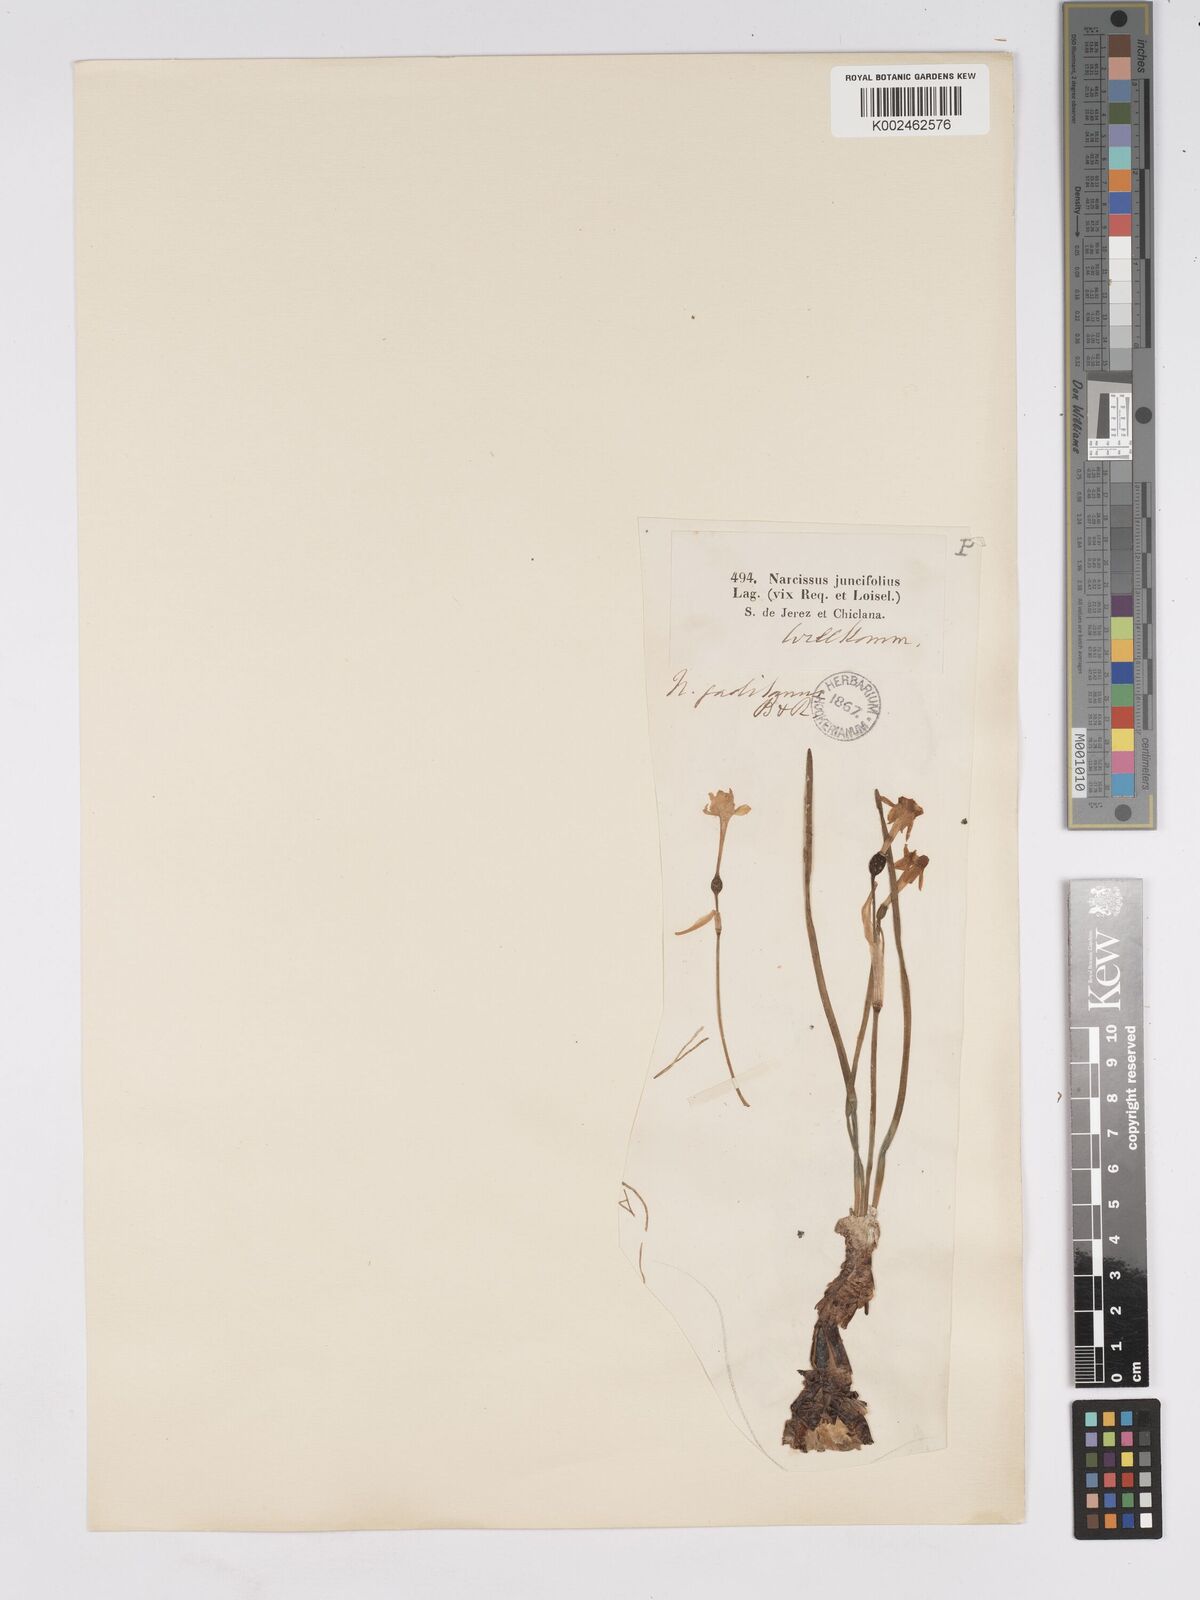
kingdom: Plantae
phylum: Tracheophyta
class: Liliopsida
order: Asparagales
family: Amaryllidaceae
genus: Narcissus
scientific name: Narcissus assoanus
